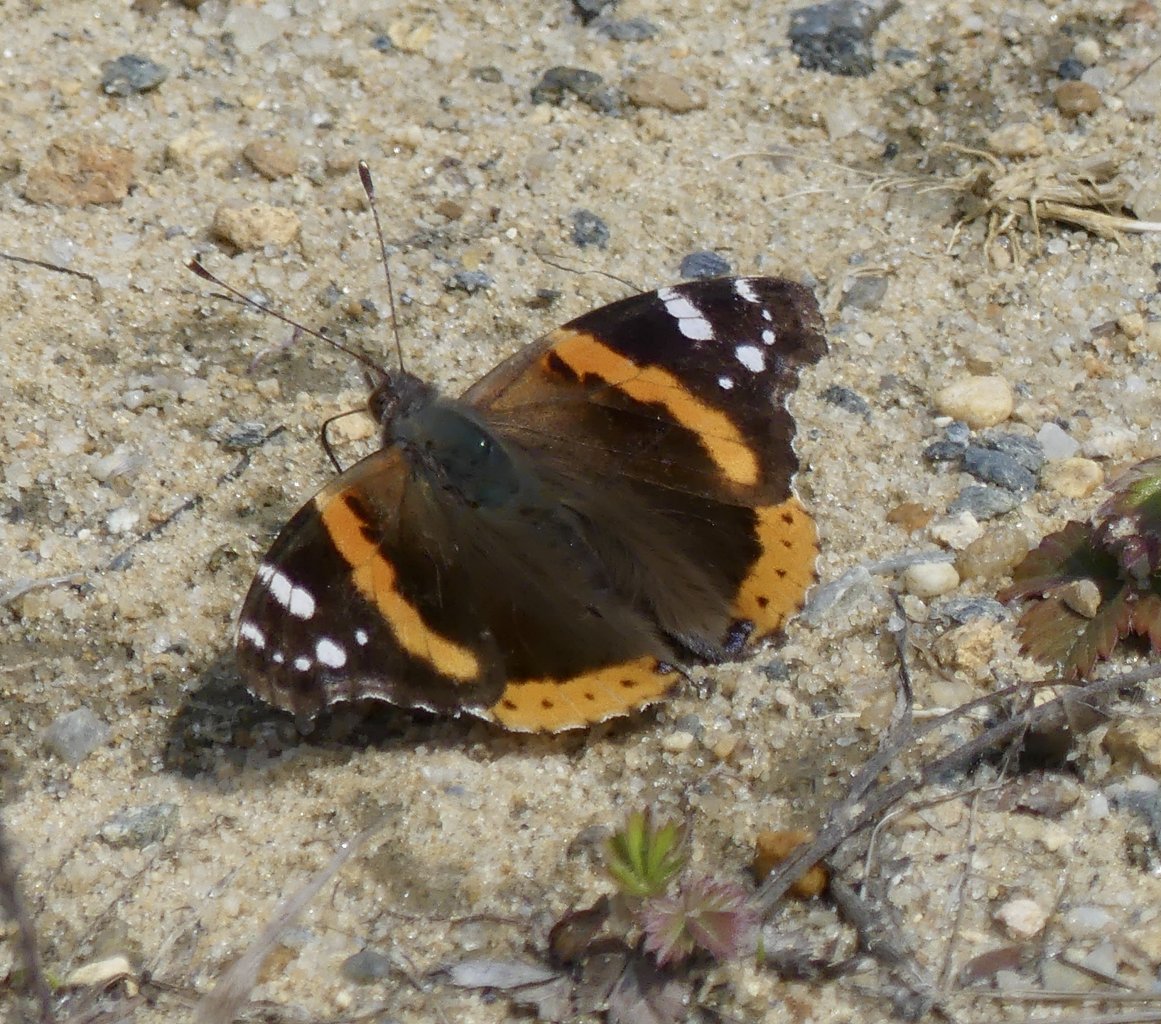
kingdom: Animalia
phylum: Arthropoda
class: Insecta
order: Lepidoptera
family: Nymphalidae
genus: Vanessa
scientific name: Vanessa atalanta
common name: Red Admiral
